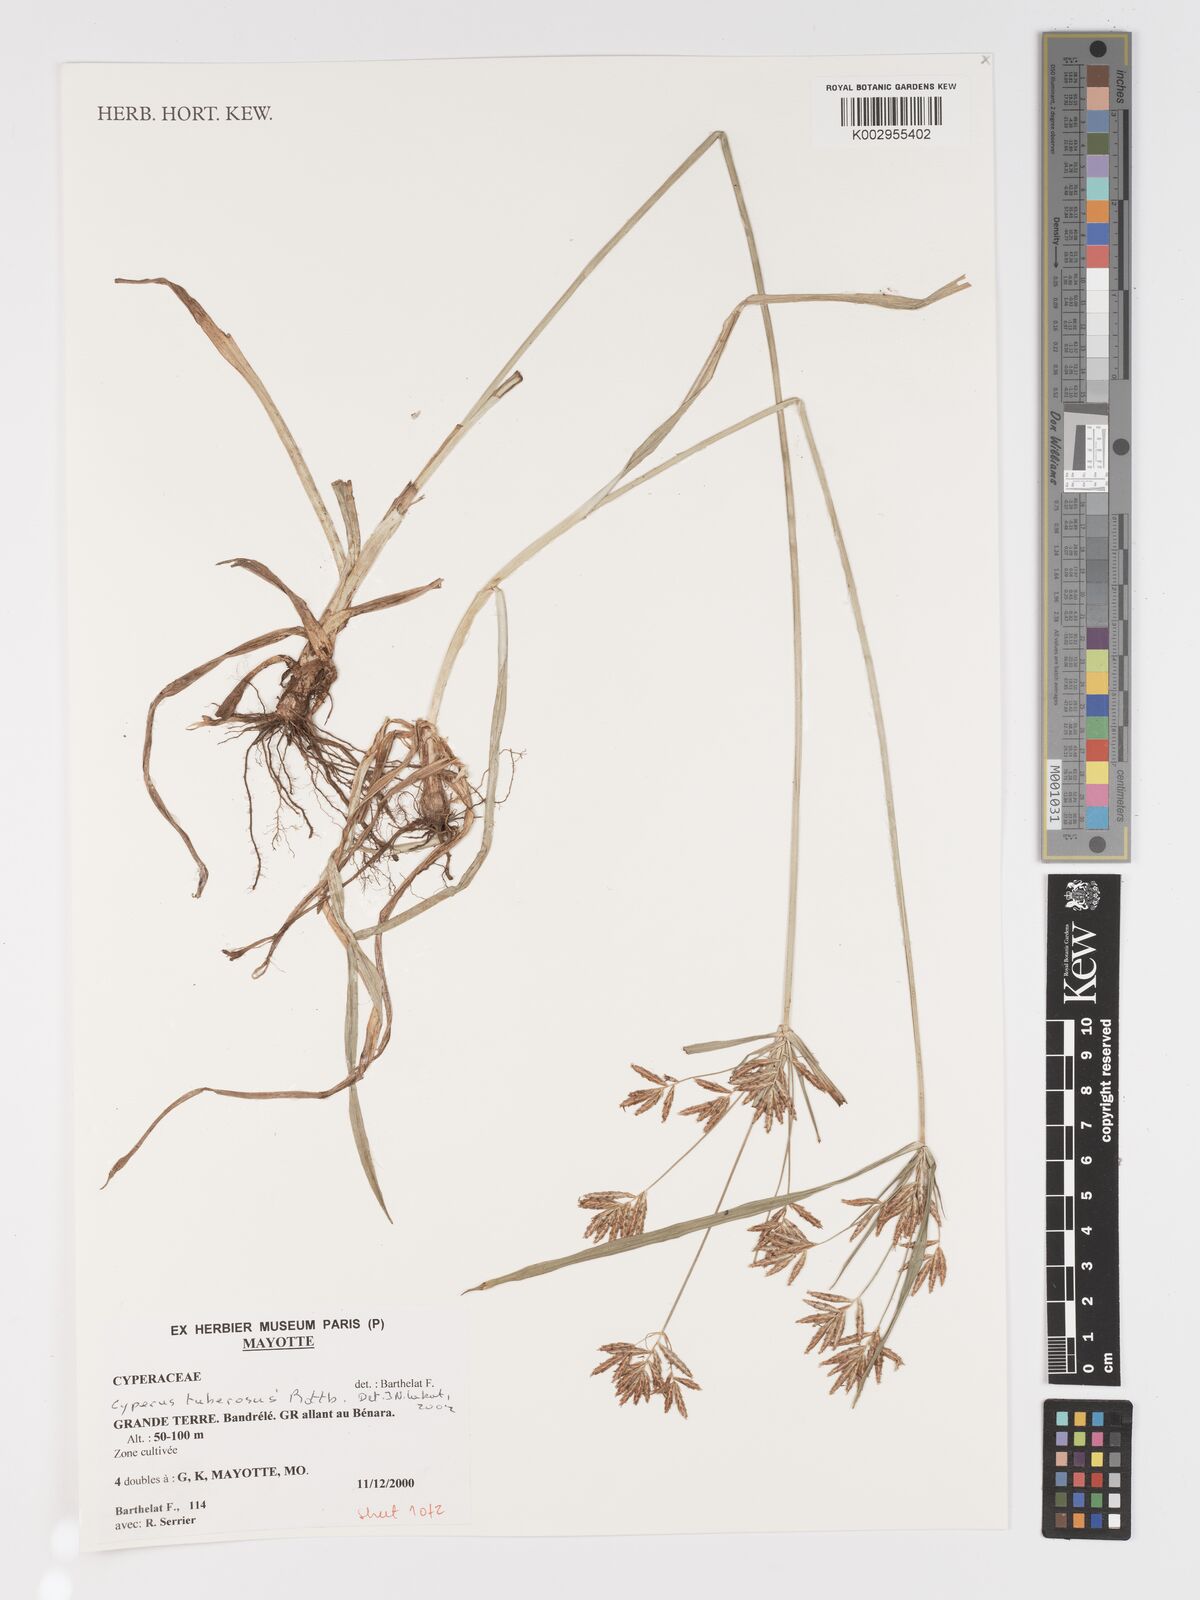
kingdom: Plantae
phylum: Tracheophyta
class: Liliopsida
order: Poales
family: Cyperaceae
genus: Cyperus
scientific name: Cyperus tuberosus
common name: Nut grass
